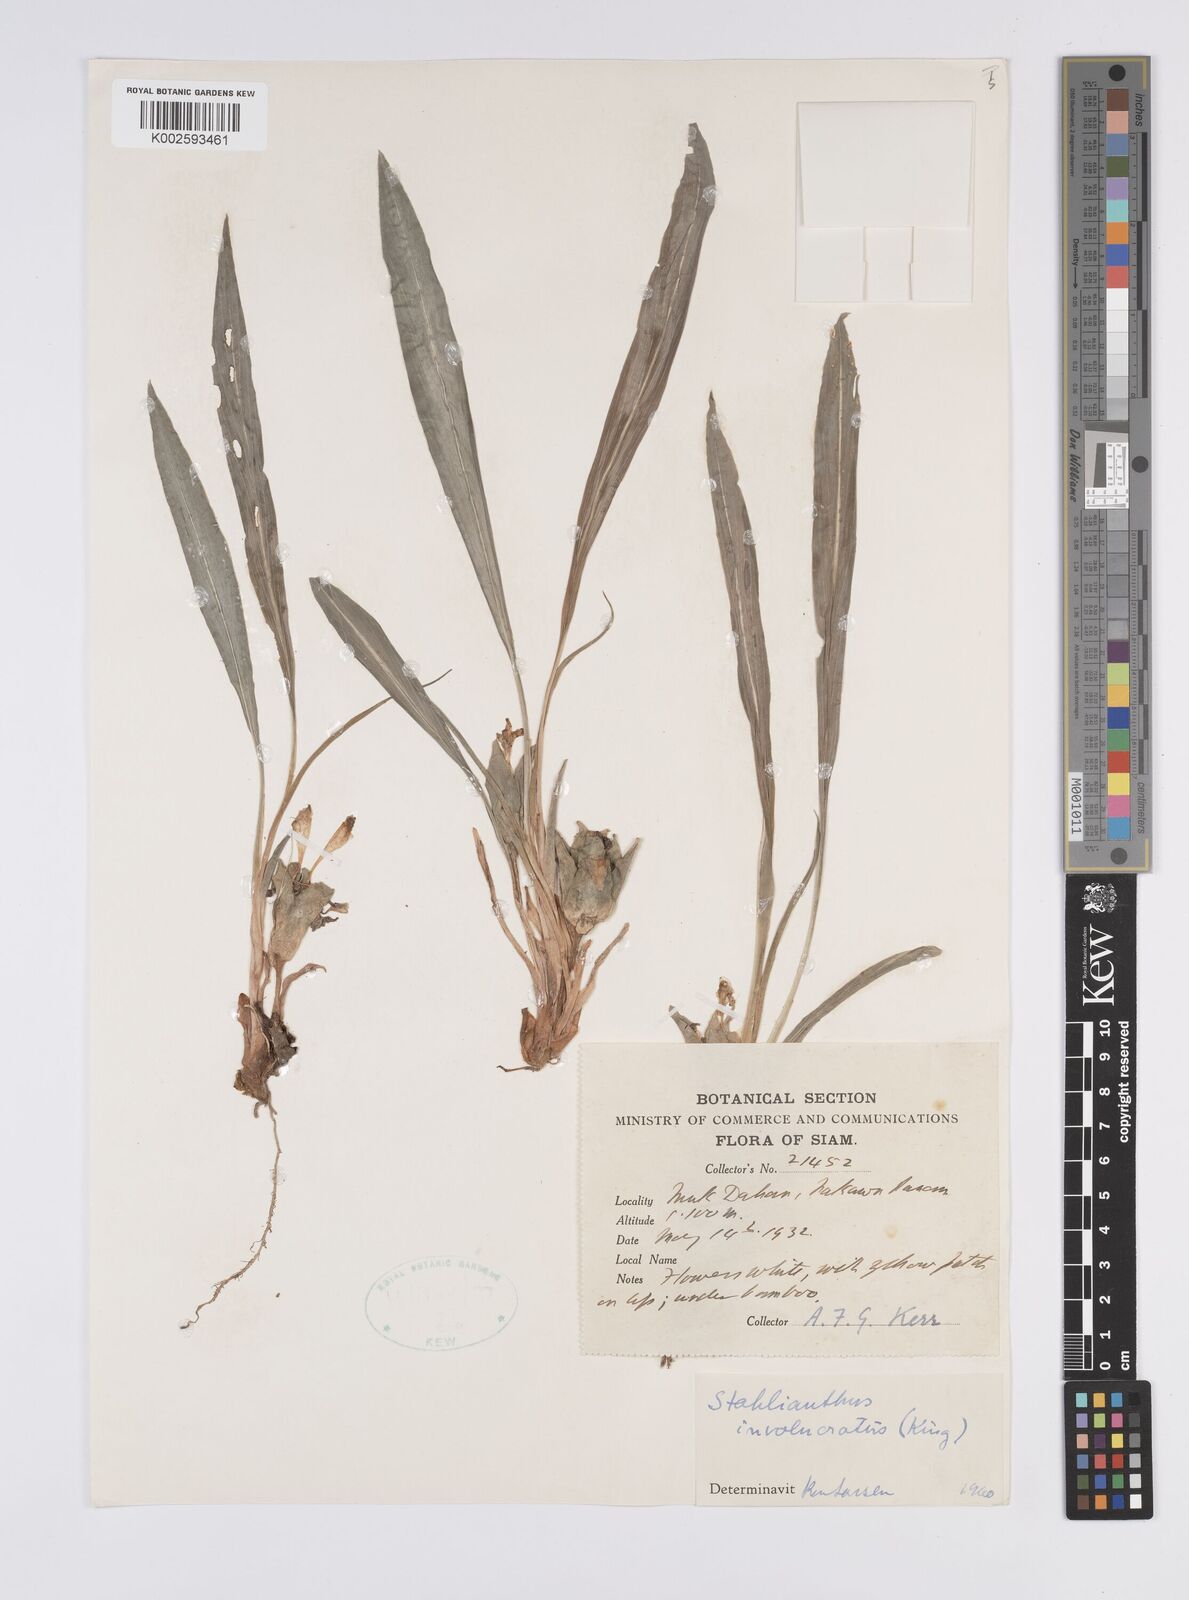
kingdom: Plantae
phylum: Tracheophyta
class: Liliopsida
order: Zingiberales
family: Zingiberaceae
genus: Curcuma
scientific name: Curcuma involucrata
